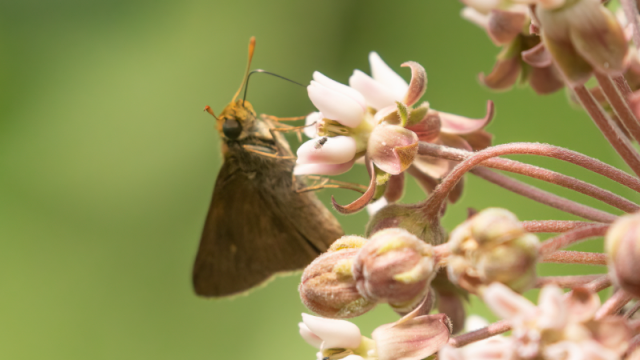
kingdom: Animalia
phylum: Arthropoda
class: Insecta
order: Lepidoptera
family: Hesperiidae
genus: Euphyes
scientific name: Euphyes vestris
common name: Dun Skipper
